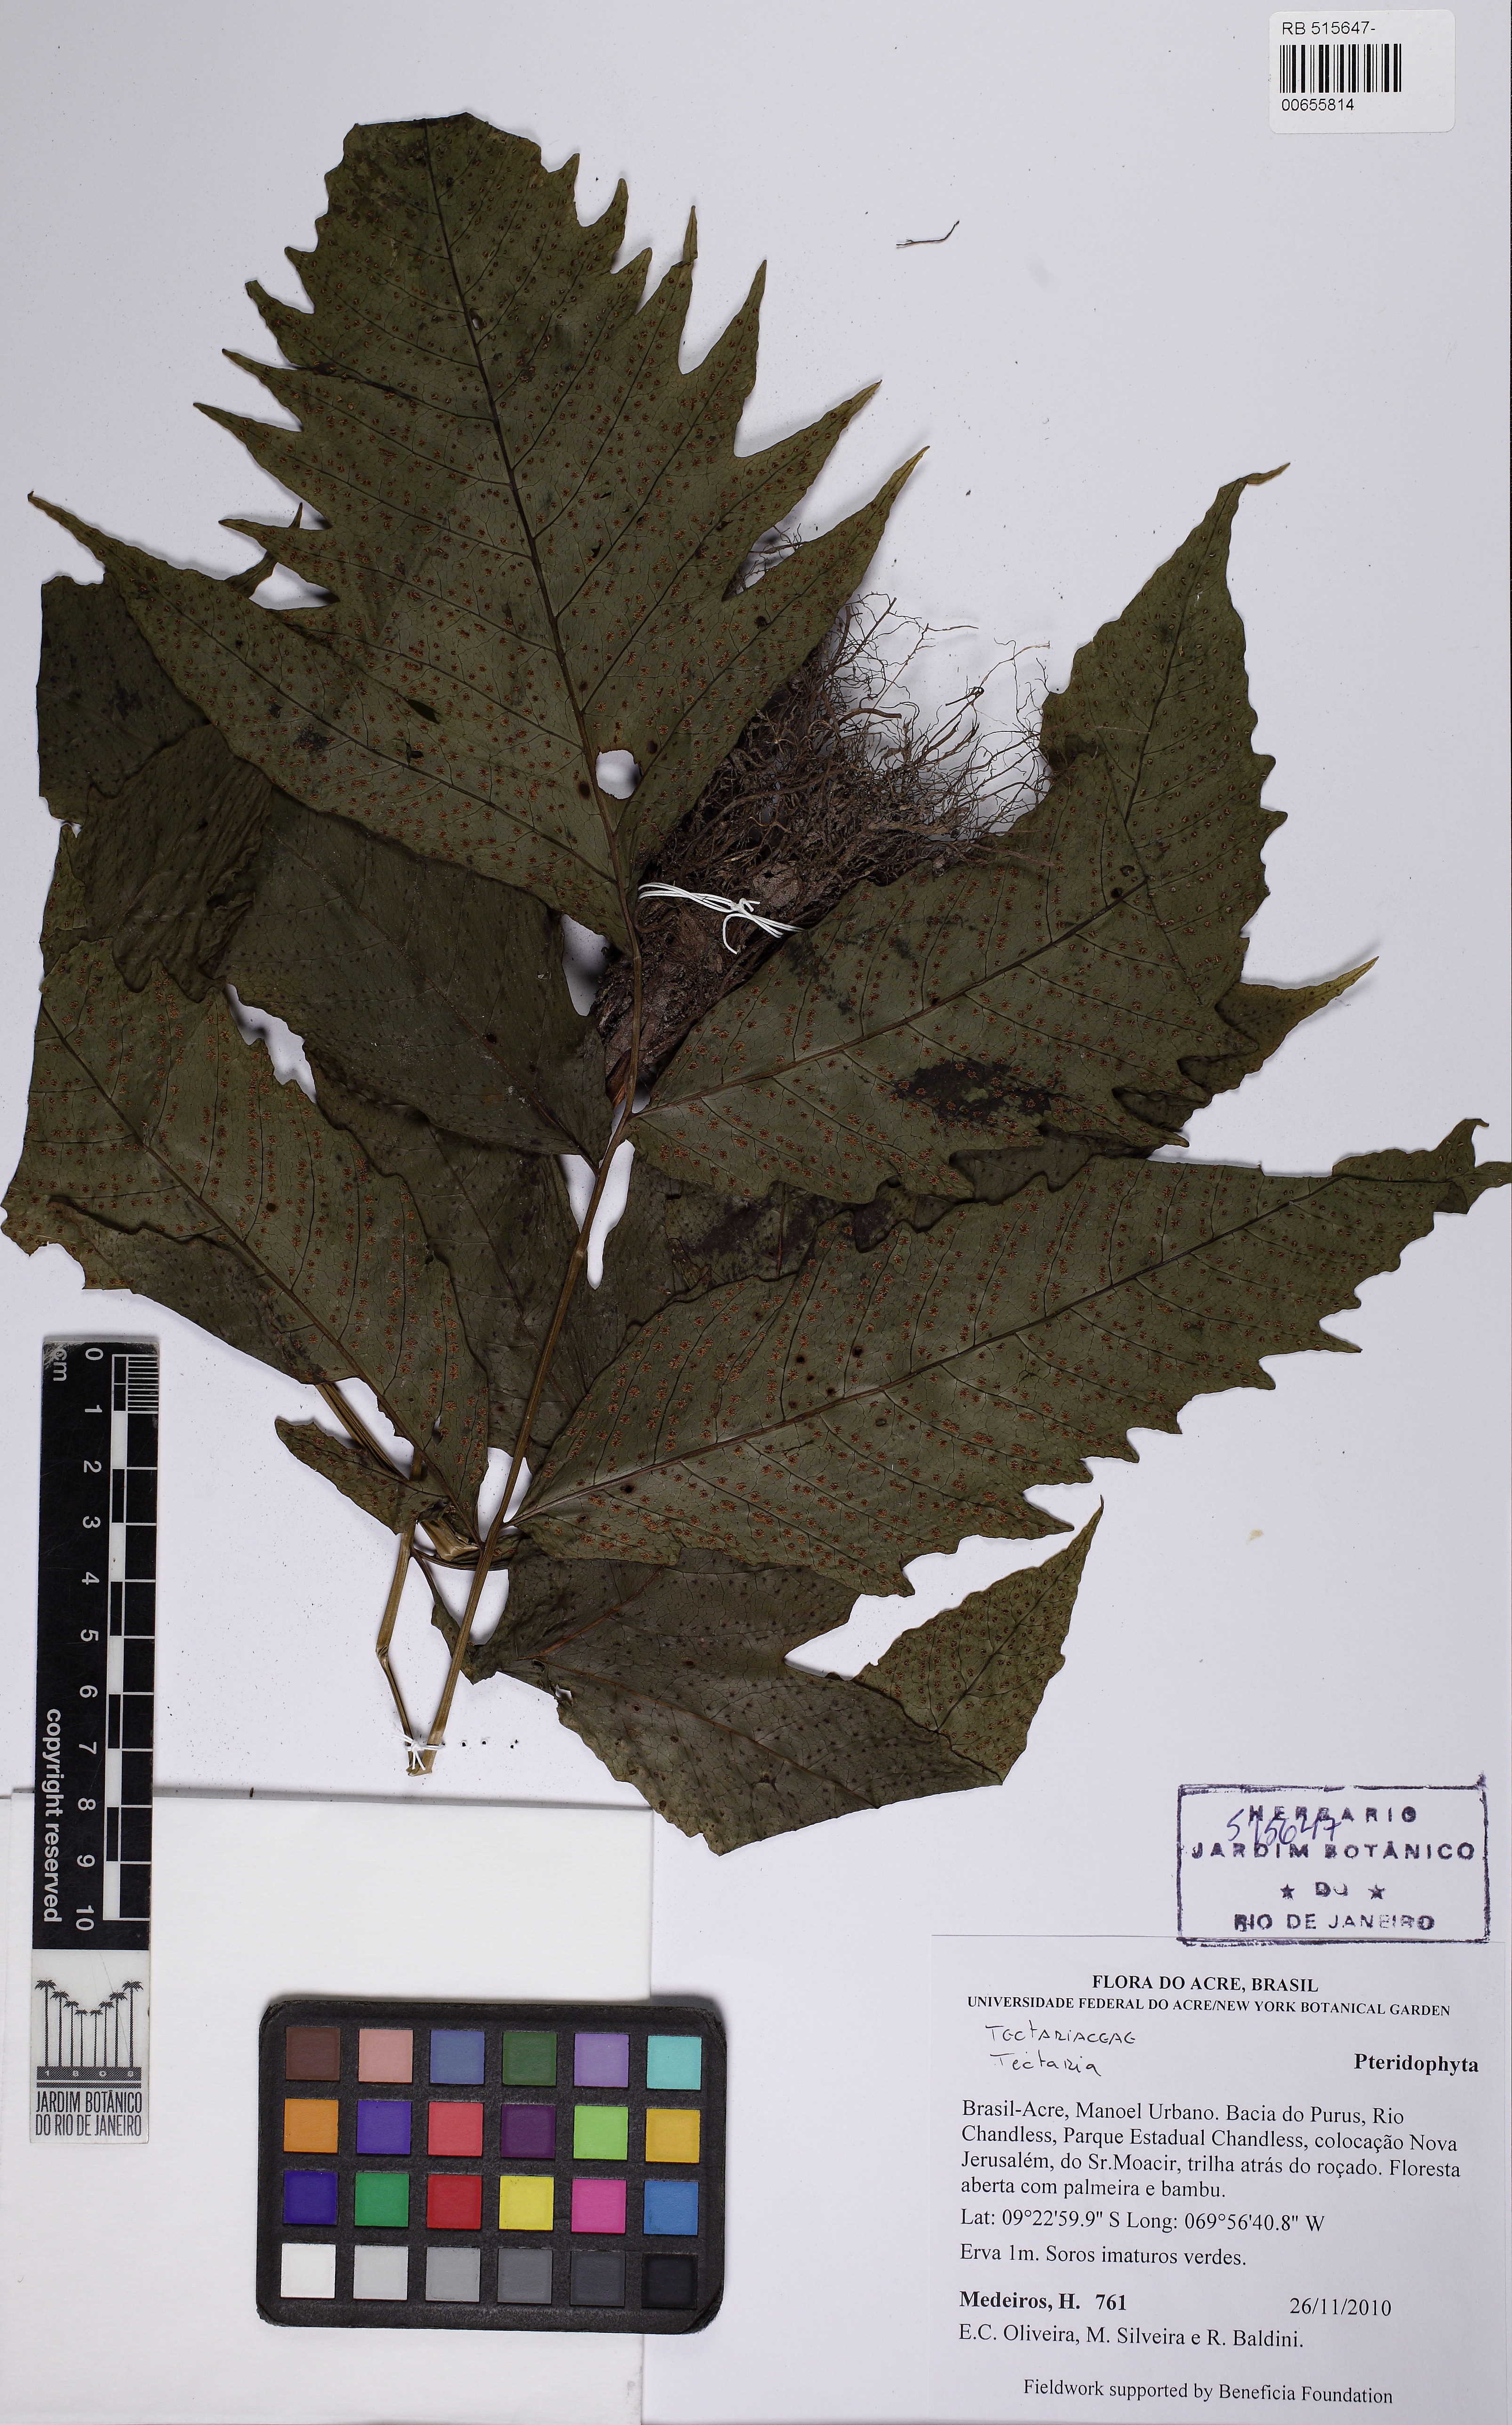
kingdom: Plantae
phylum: Tracheophyta
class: Polypodiopsida
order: Polypodiales
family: Tectariaceae
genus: Tectaria
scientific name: Tectaria incisa
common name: Incised halberd fern
